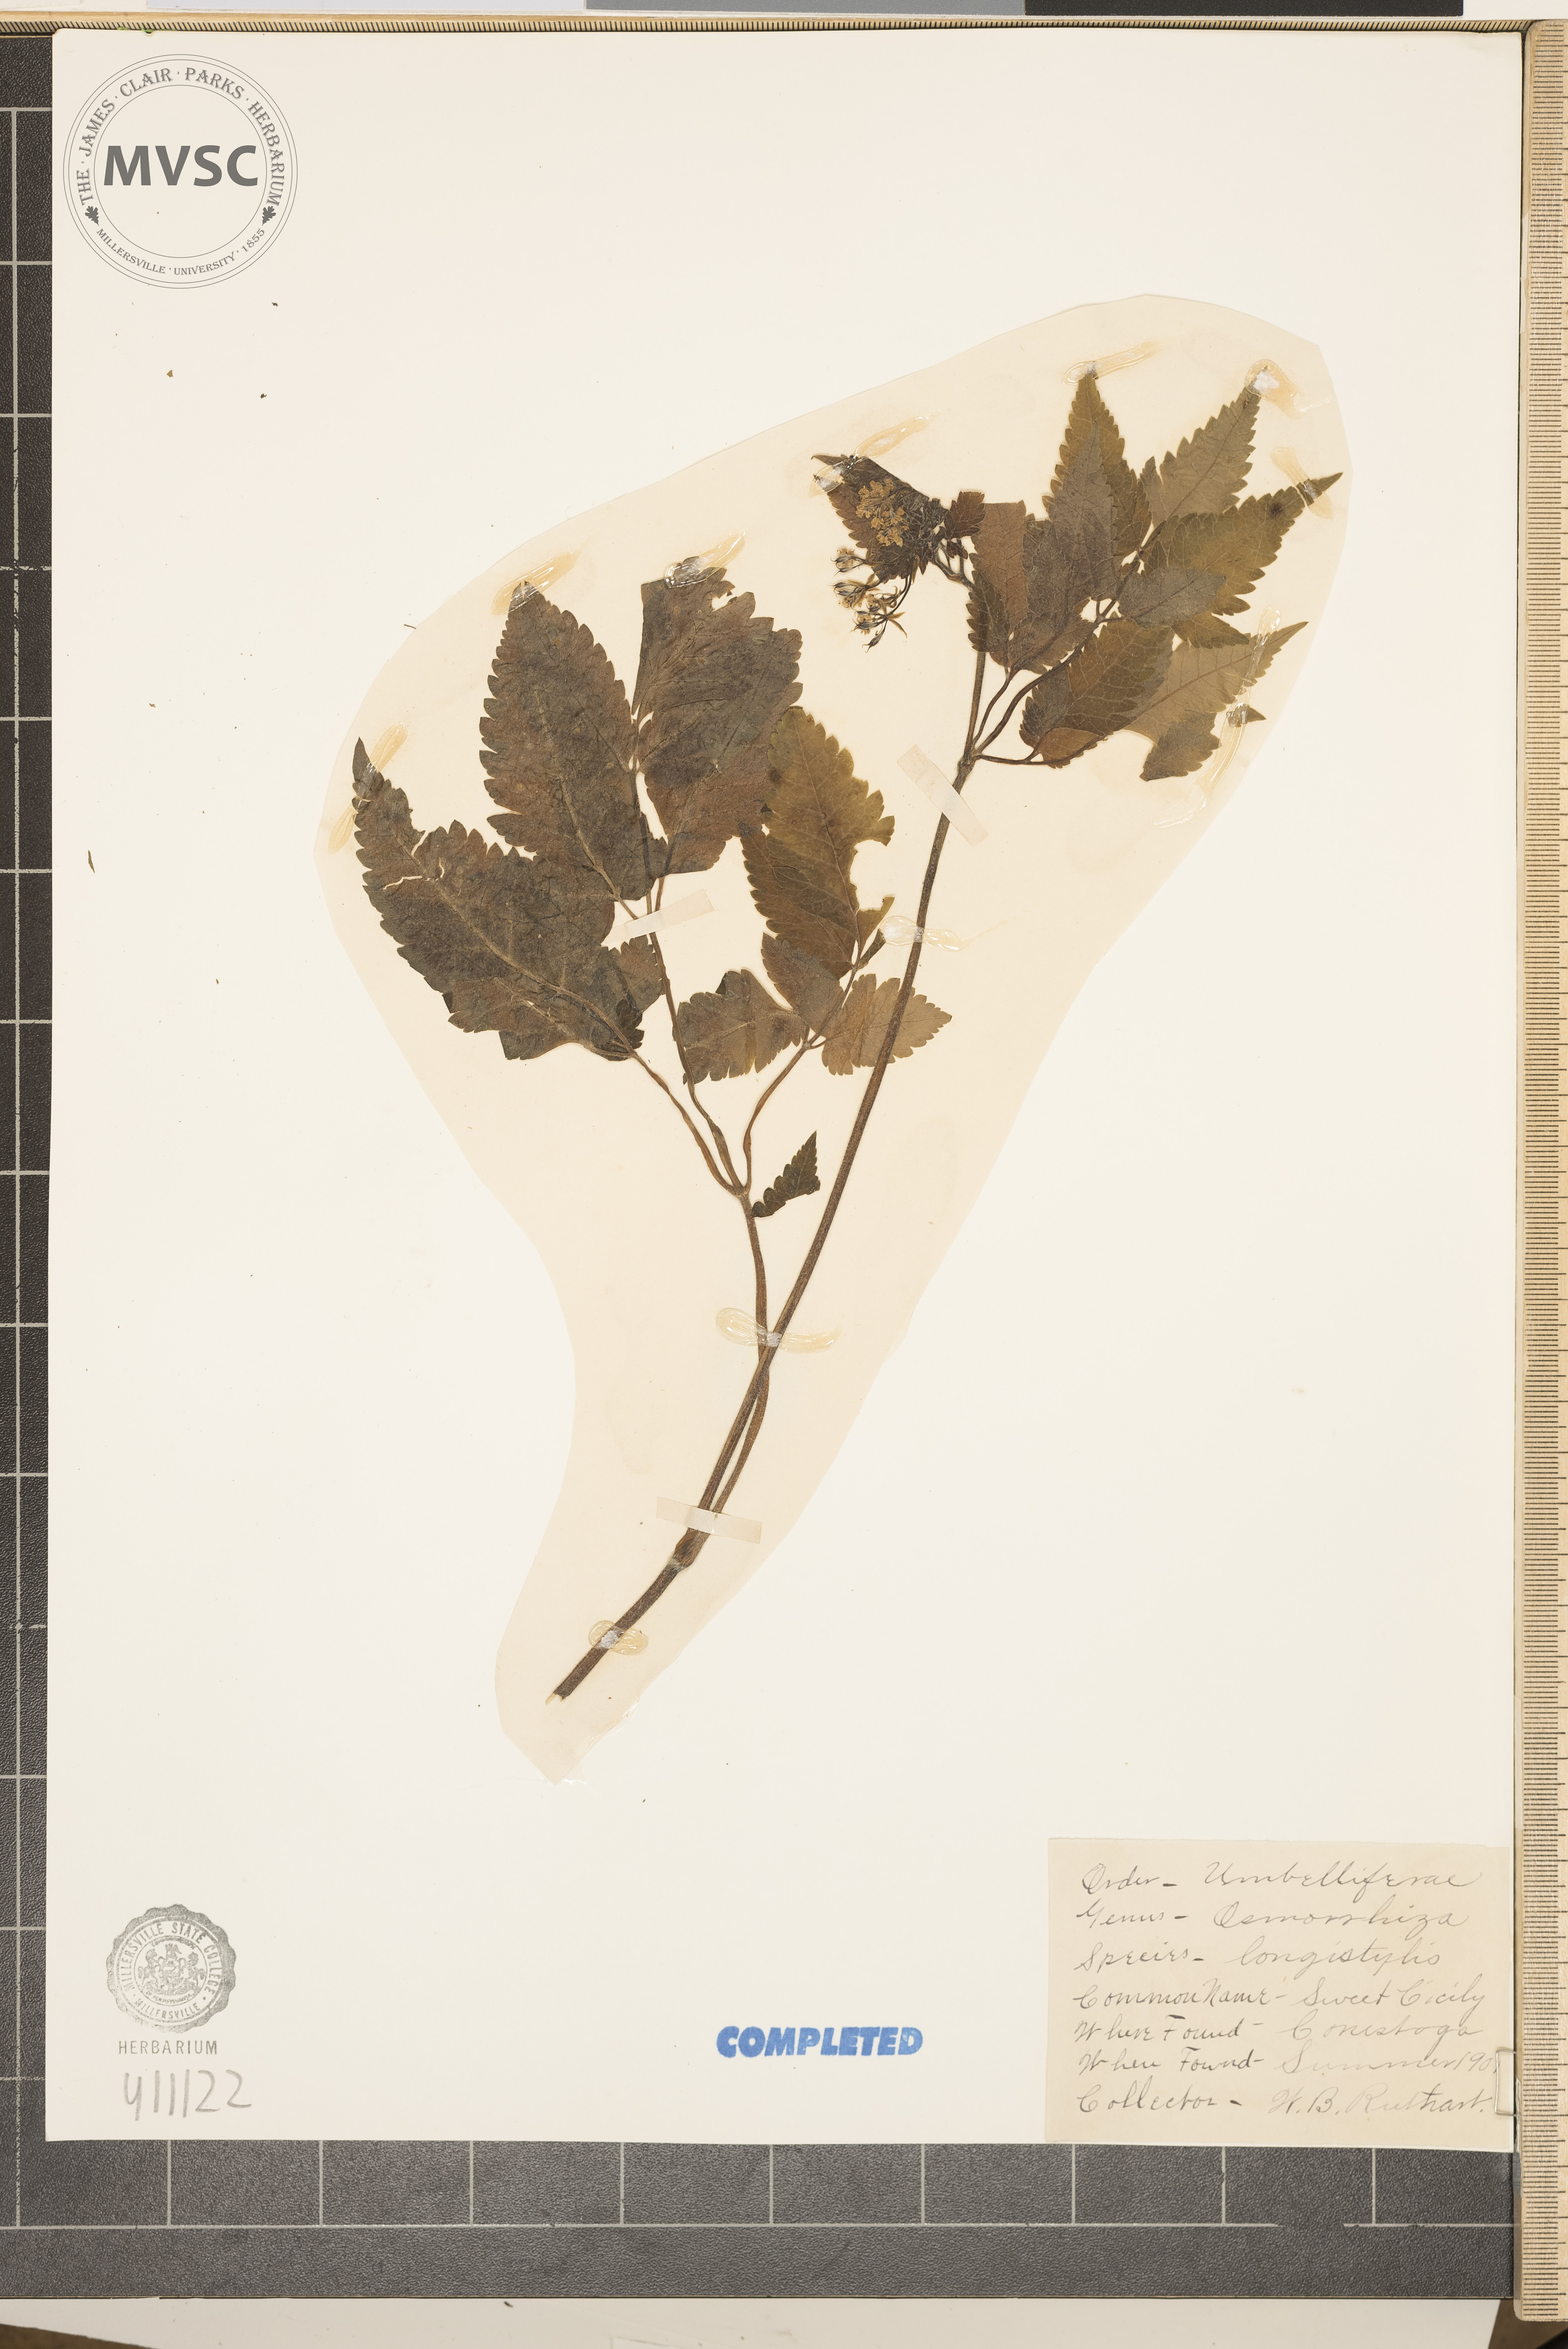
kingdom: Plantae
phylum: Tracheophyta
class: Magnoliopsida
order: Apiales
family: Apiaceae
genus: Osmorhiza
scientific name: Osmorhiza longistylis
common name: Smooth sweet cicely
